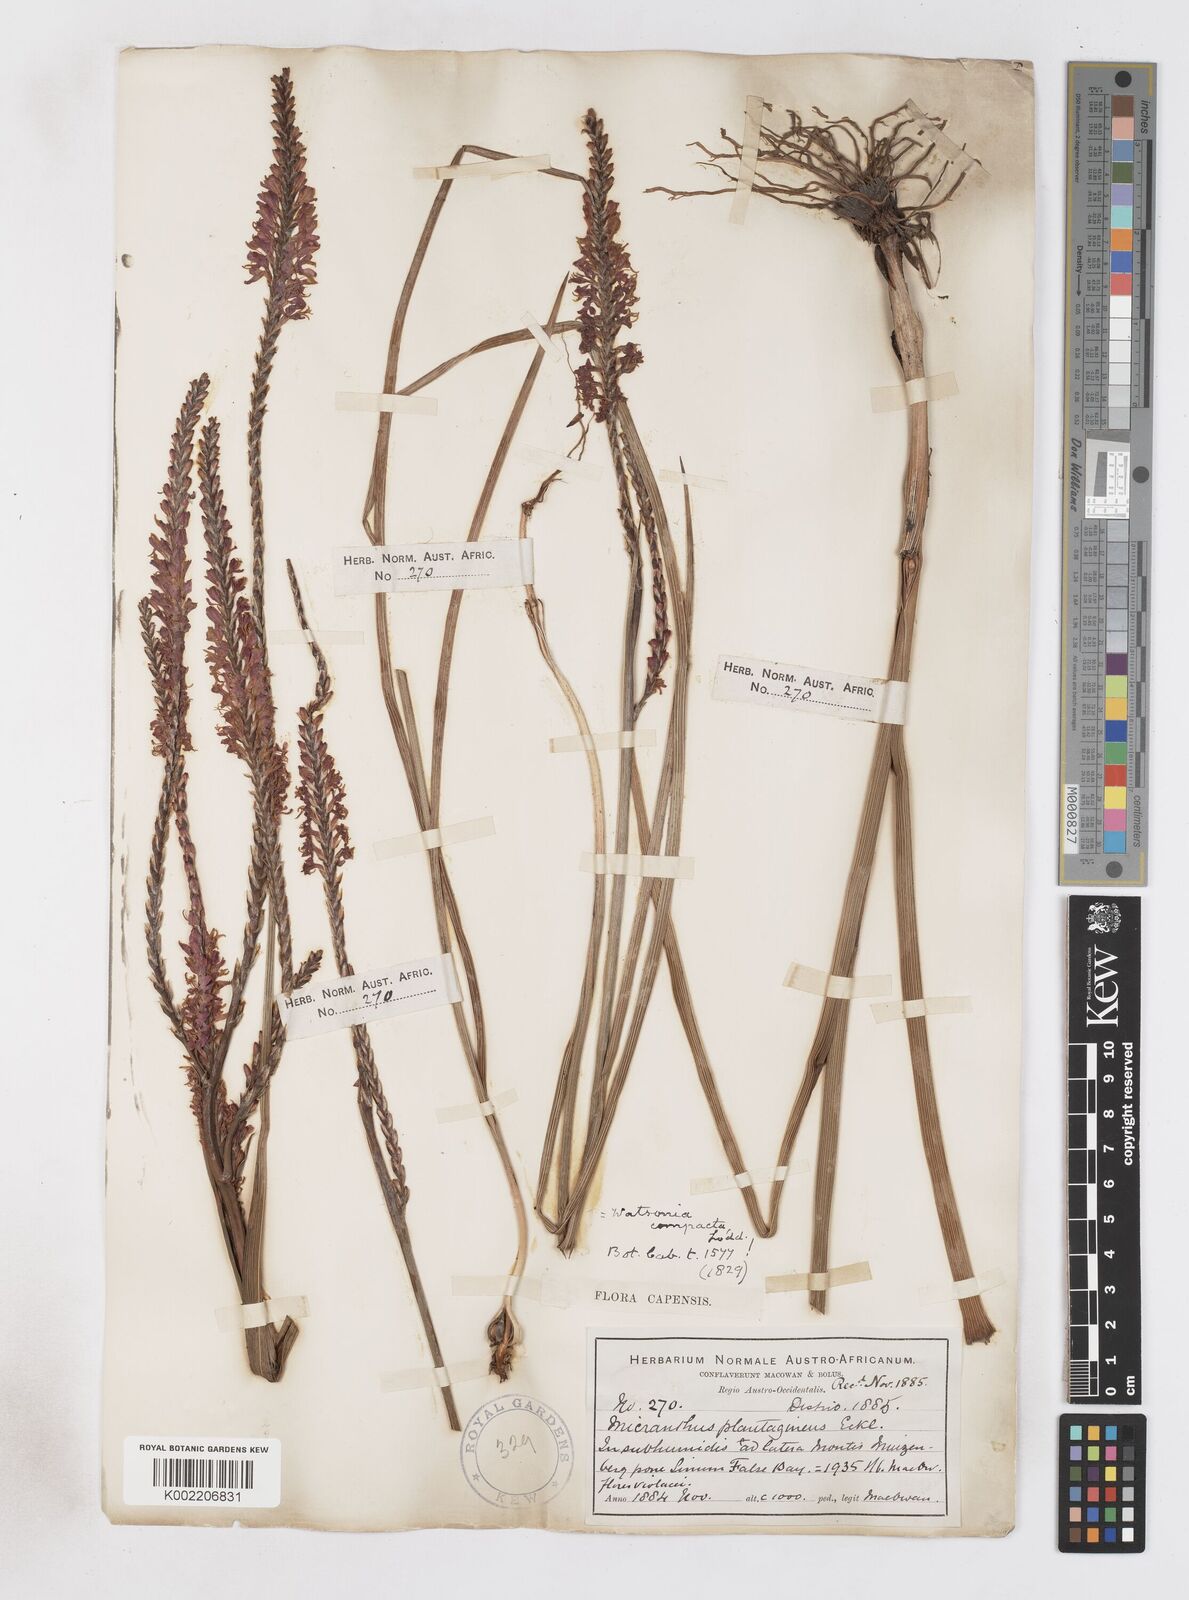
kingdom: Plantae
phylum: Tracheophyta
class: Liliopsida
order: Asparagales
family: Iridaceae
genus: Micranthus
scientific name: Micranthus alopecuroides
